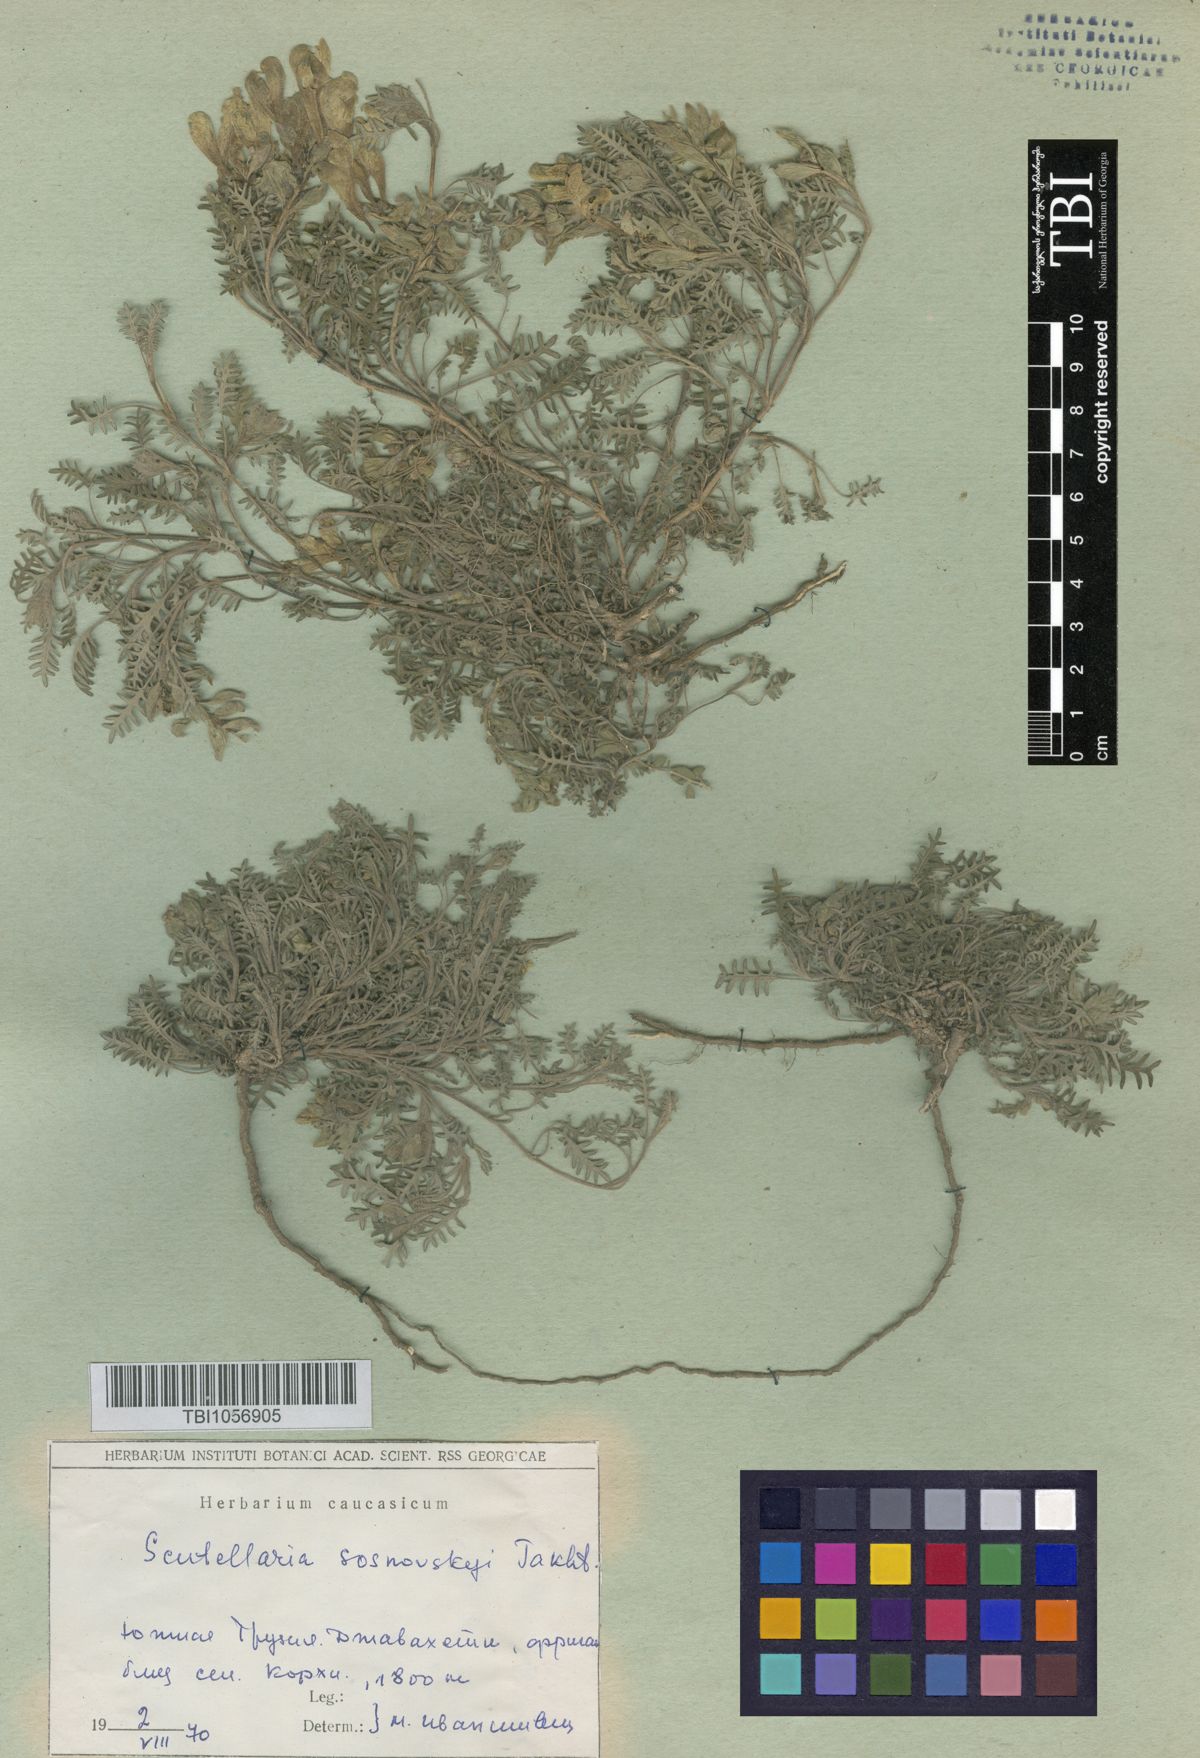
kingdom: Plantae
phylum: Tracheophyta
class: Magnoliopsida
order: Lamiales
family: Lamiaceae
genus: Scutellaria
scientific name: Scutellaria sosnowskyi
